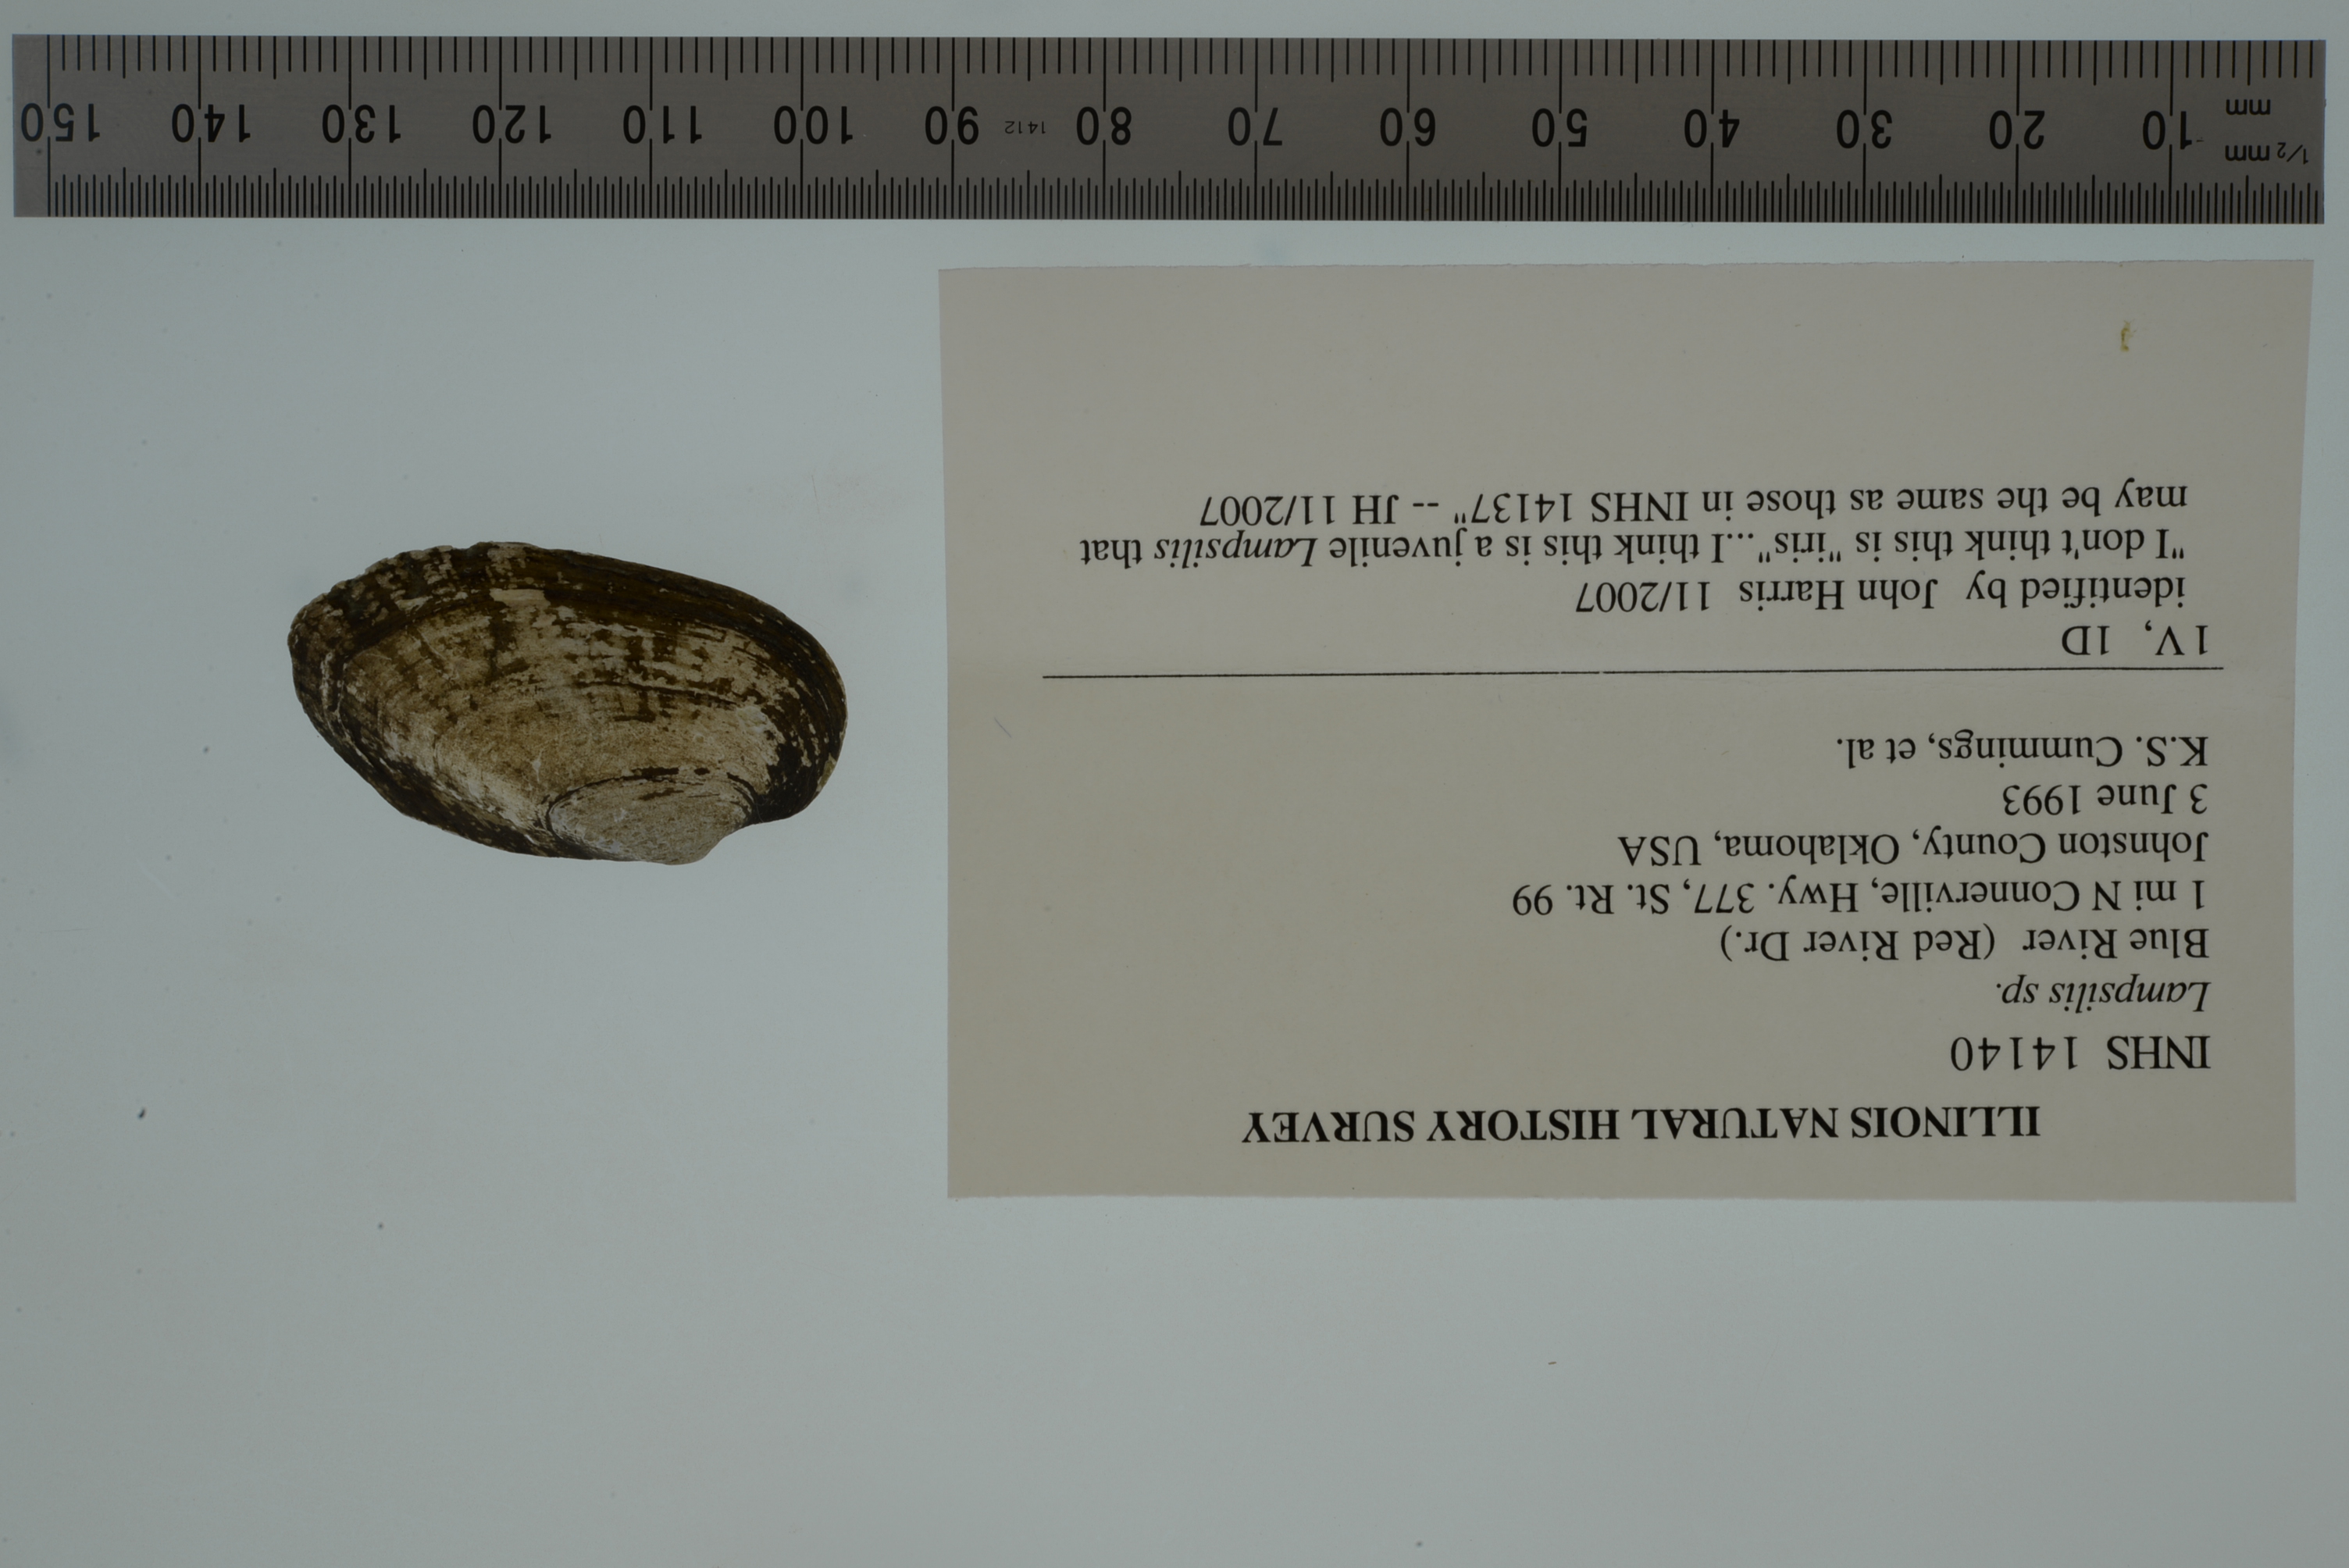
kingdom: Animalia
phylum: Mollusca
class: Bivalvia
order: Unionida
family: Unionidae
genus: Lampsilis
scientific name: Lampsilis
